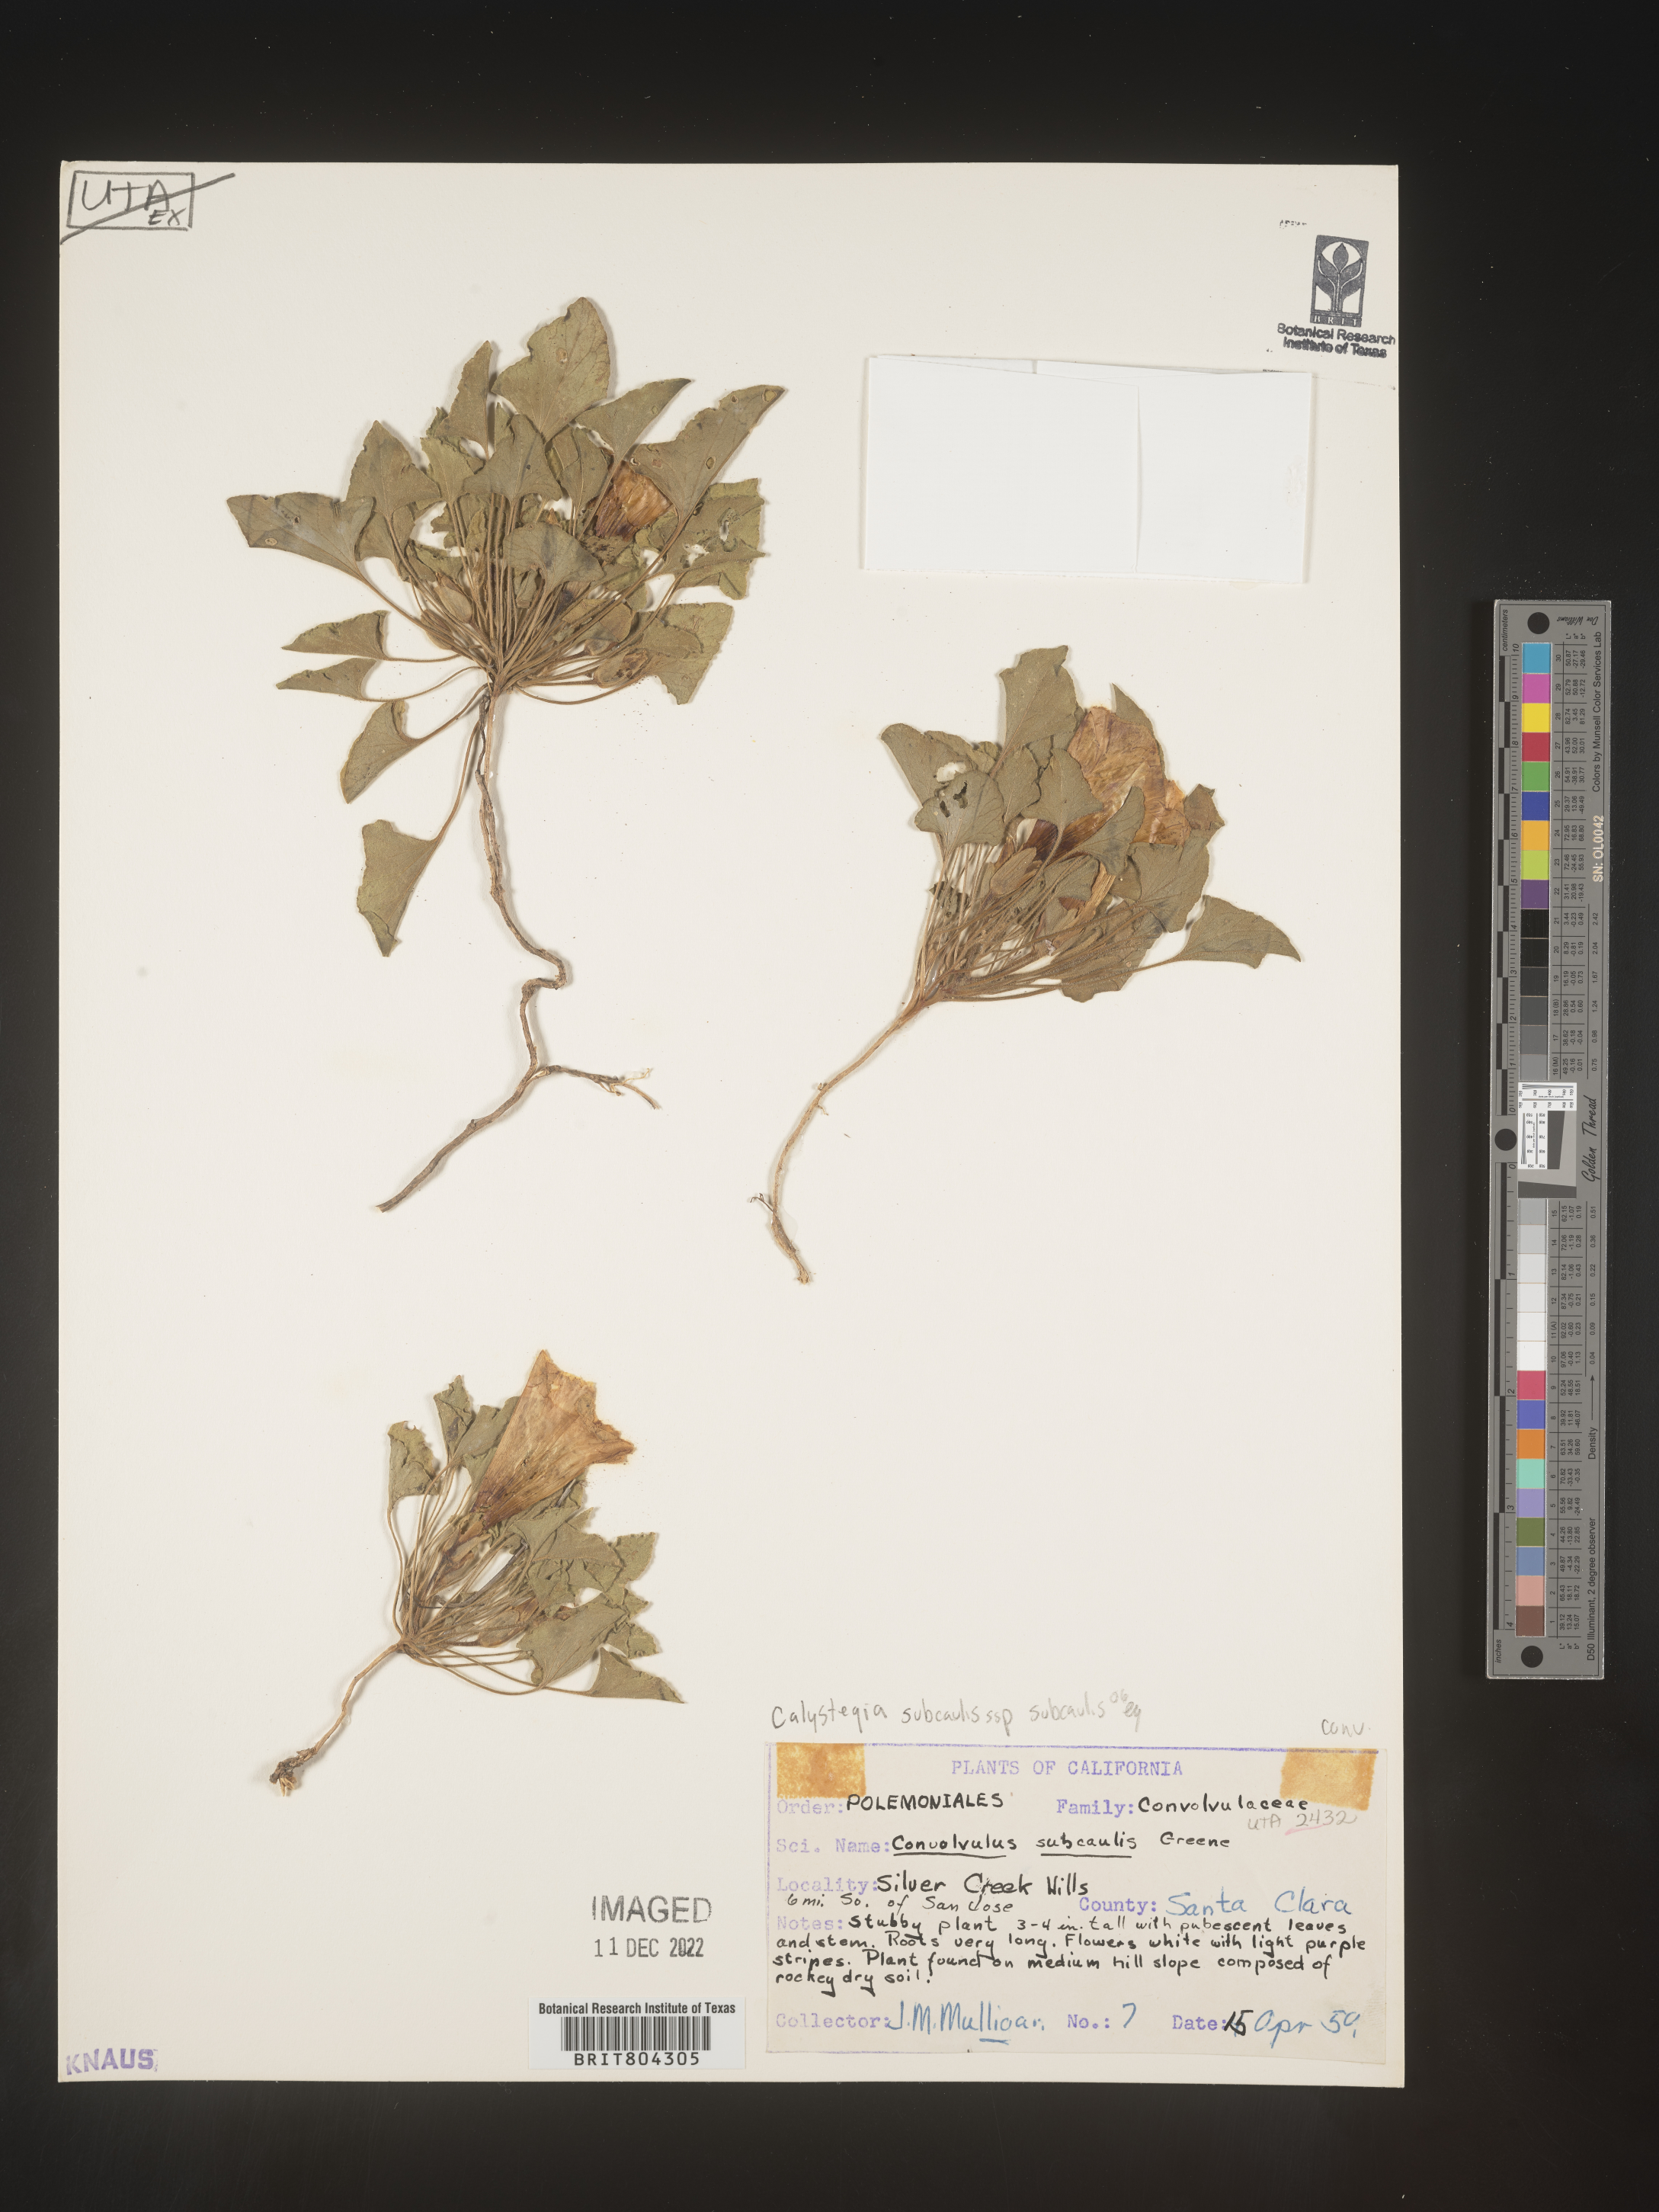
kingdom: Plantae
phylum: Tracheophyta
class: Magnoliopsida
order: Solanales
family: Convolvulaceae
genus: Calystegia
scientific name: Calystegia
